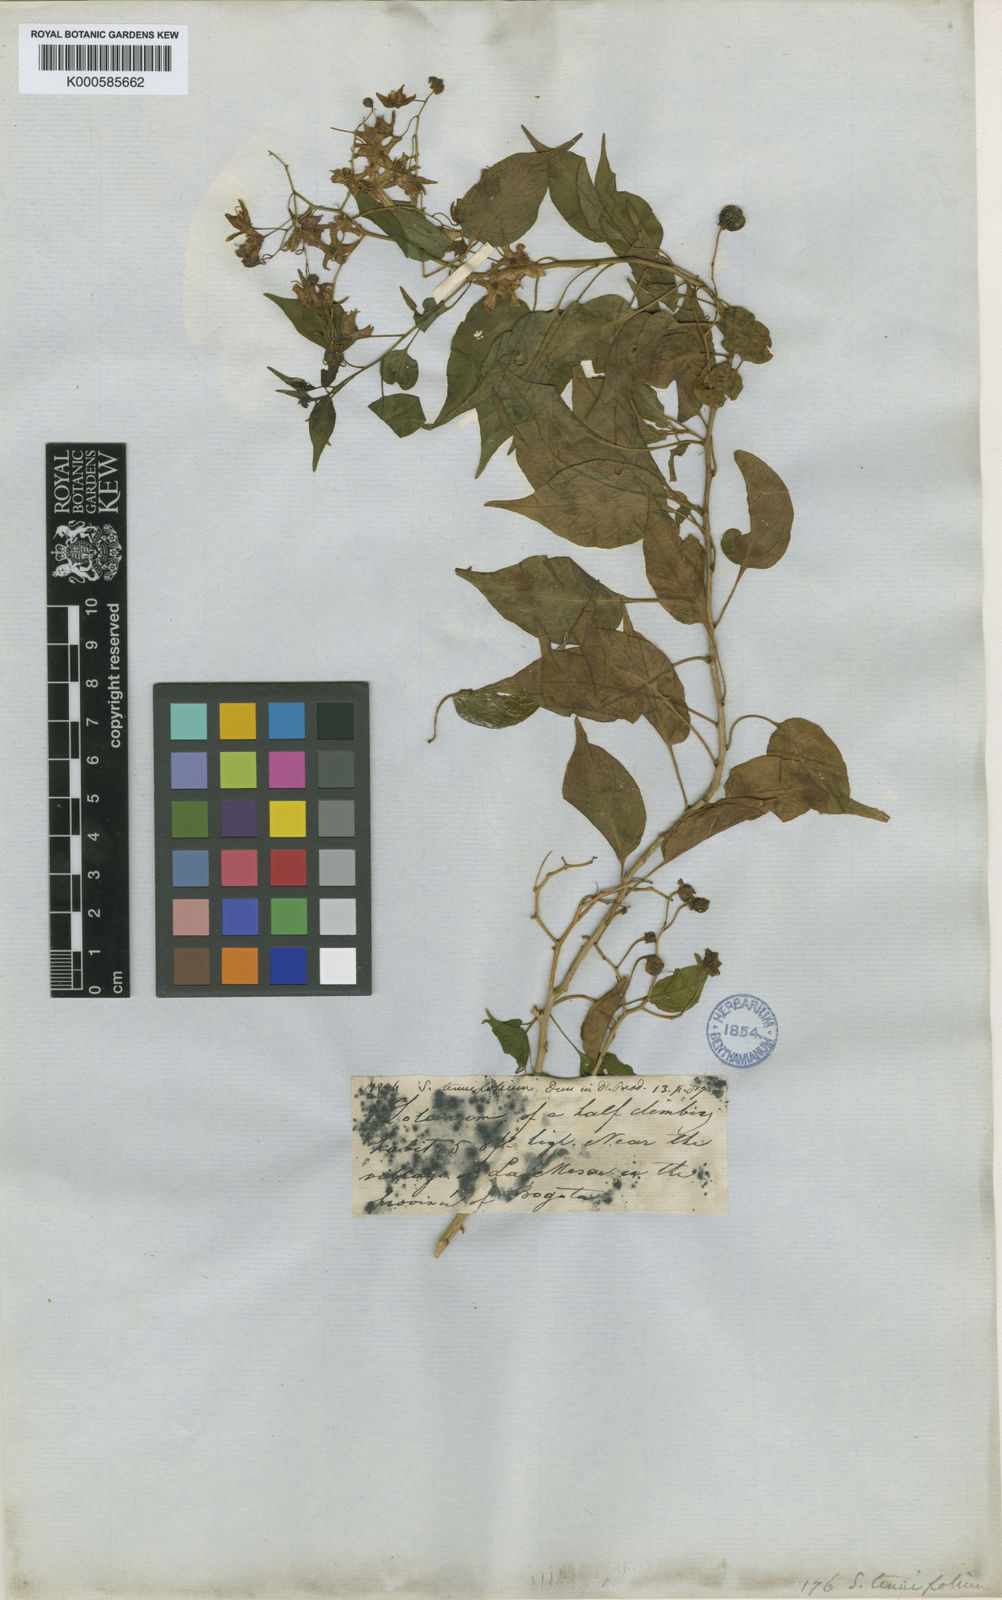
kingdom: Plantae
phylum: Tracheophyta
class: Magnoliopsida
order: Solanales
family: Solanaceae
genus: Solanum
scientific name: Solanum seaforthianum
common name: Brazilian nightshade
